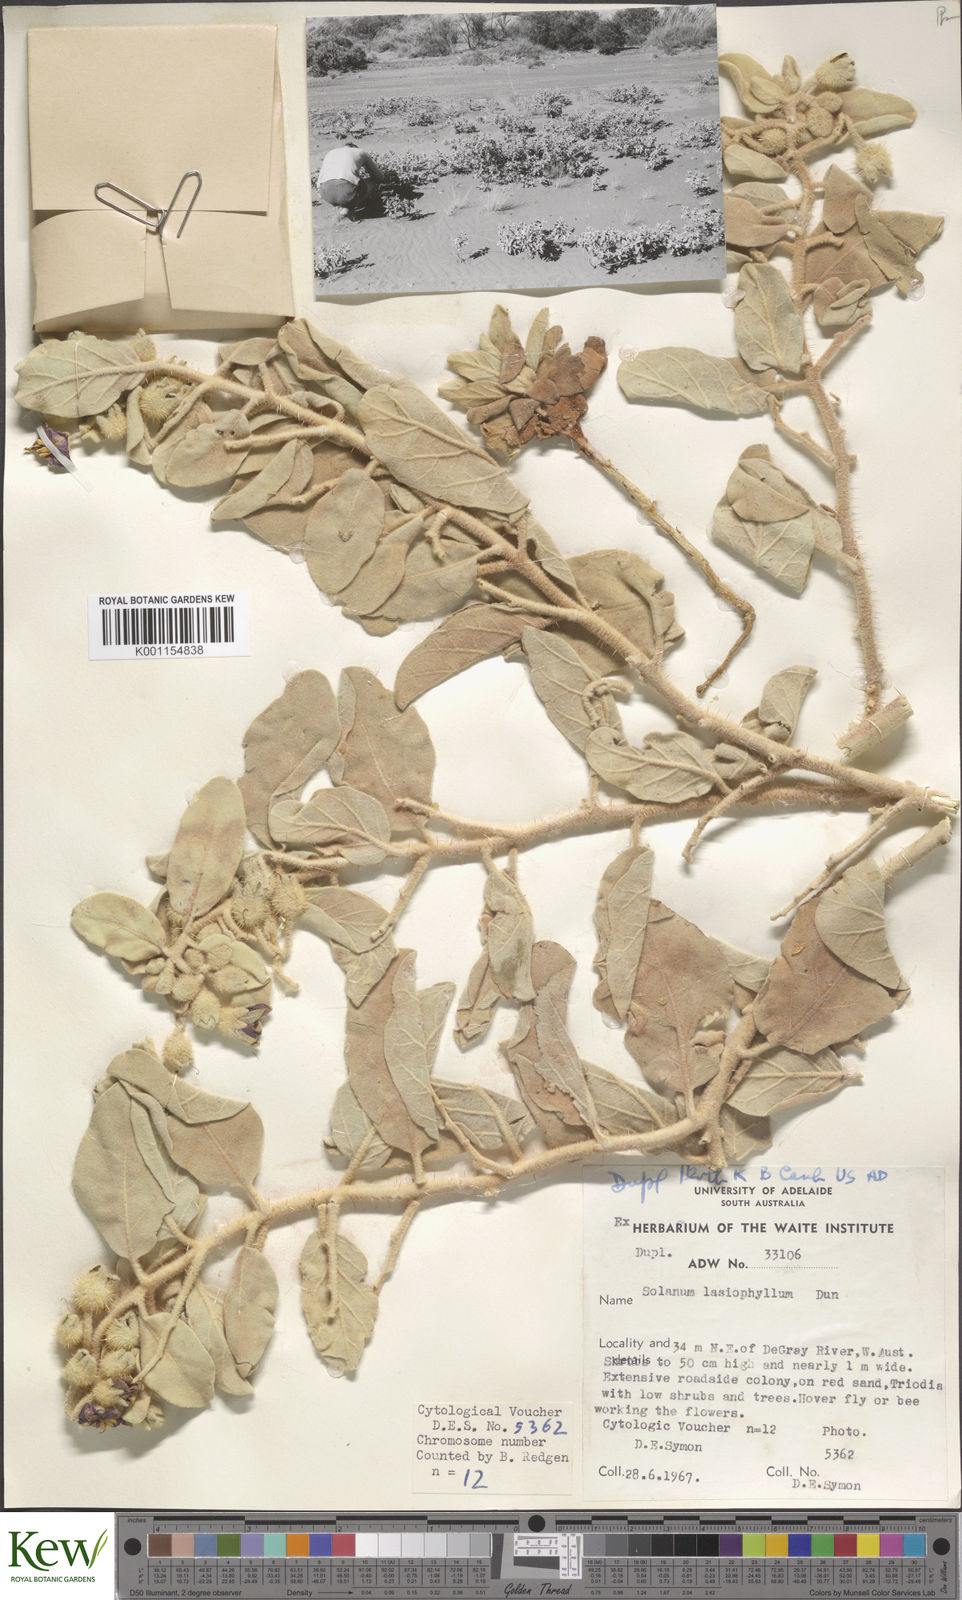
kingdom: Plantae
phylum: Tracheophyta
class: Magnoliopsida
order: Solanales
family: Solanaceae
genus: Solanum
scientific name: Solanum lasiophyllum
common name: Flannelbush
